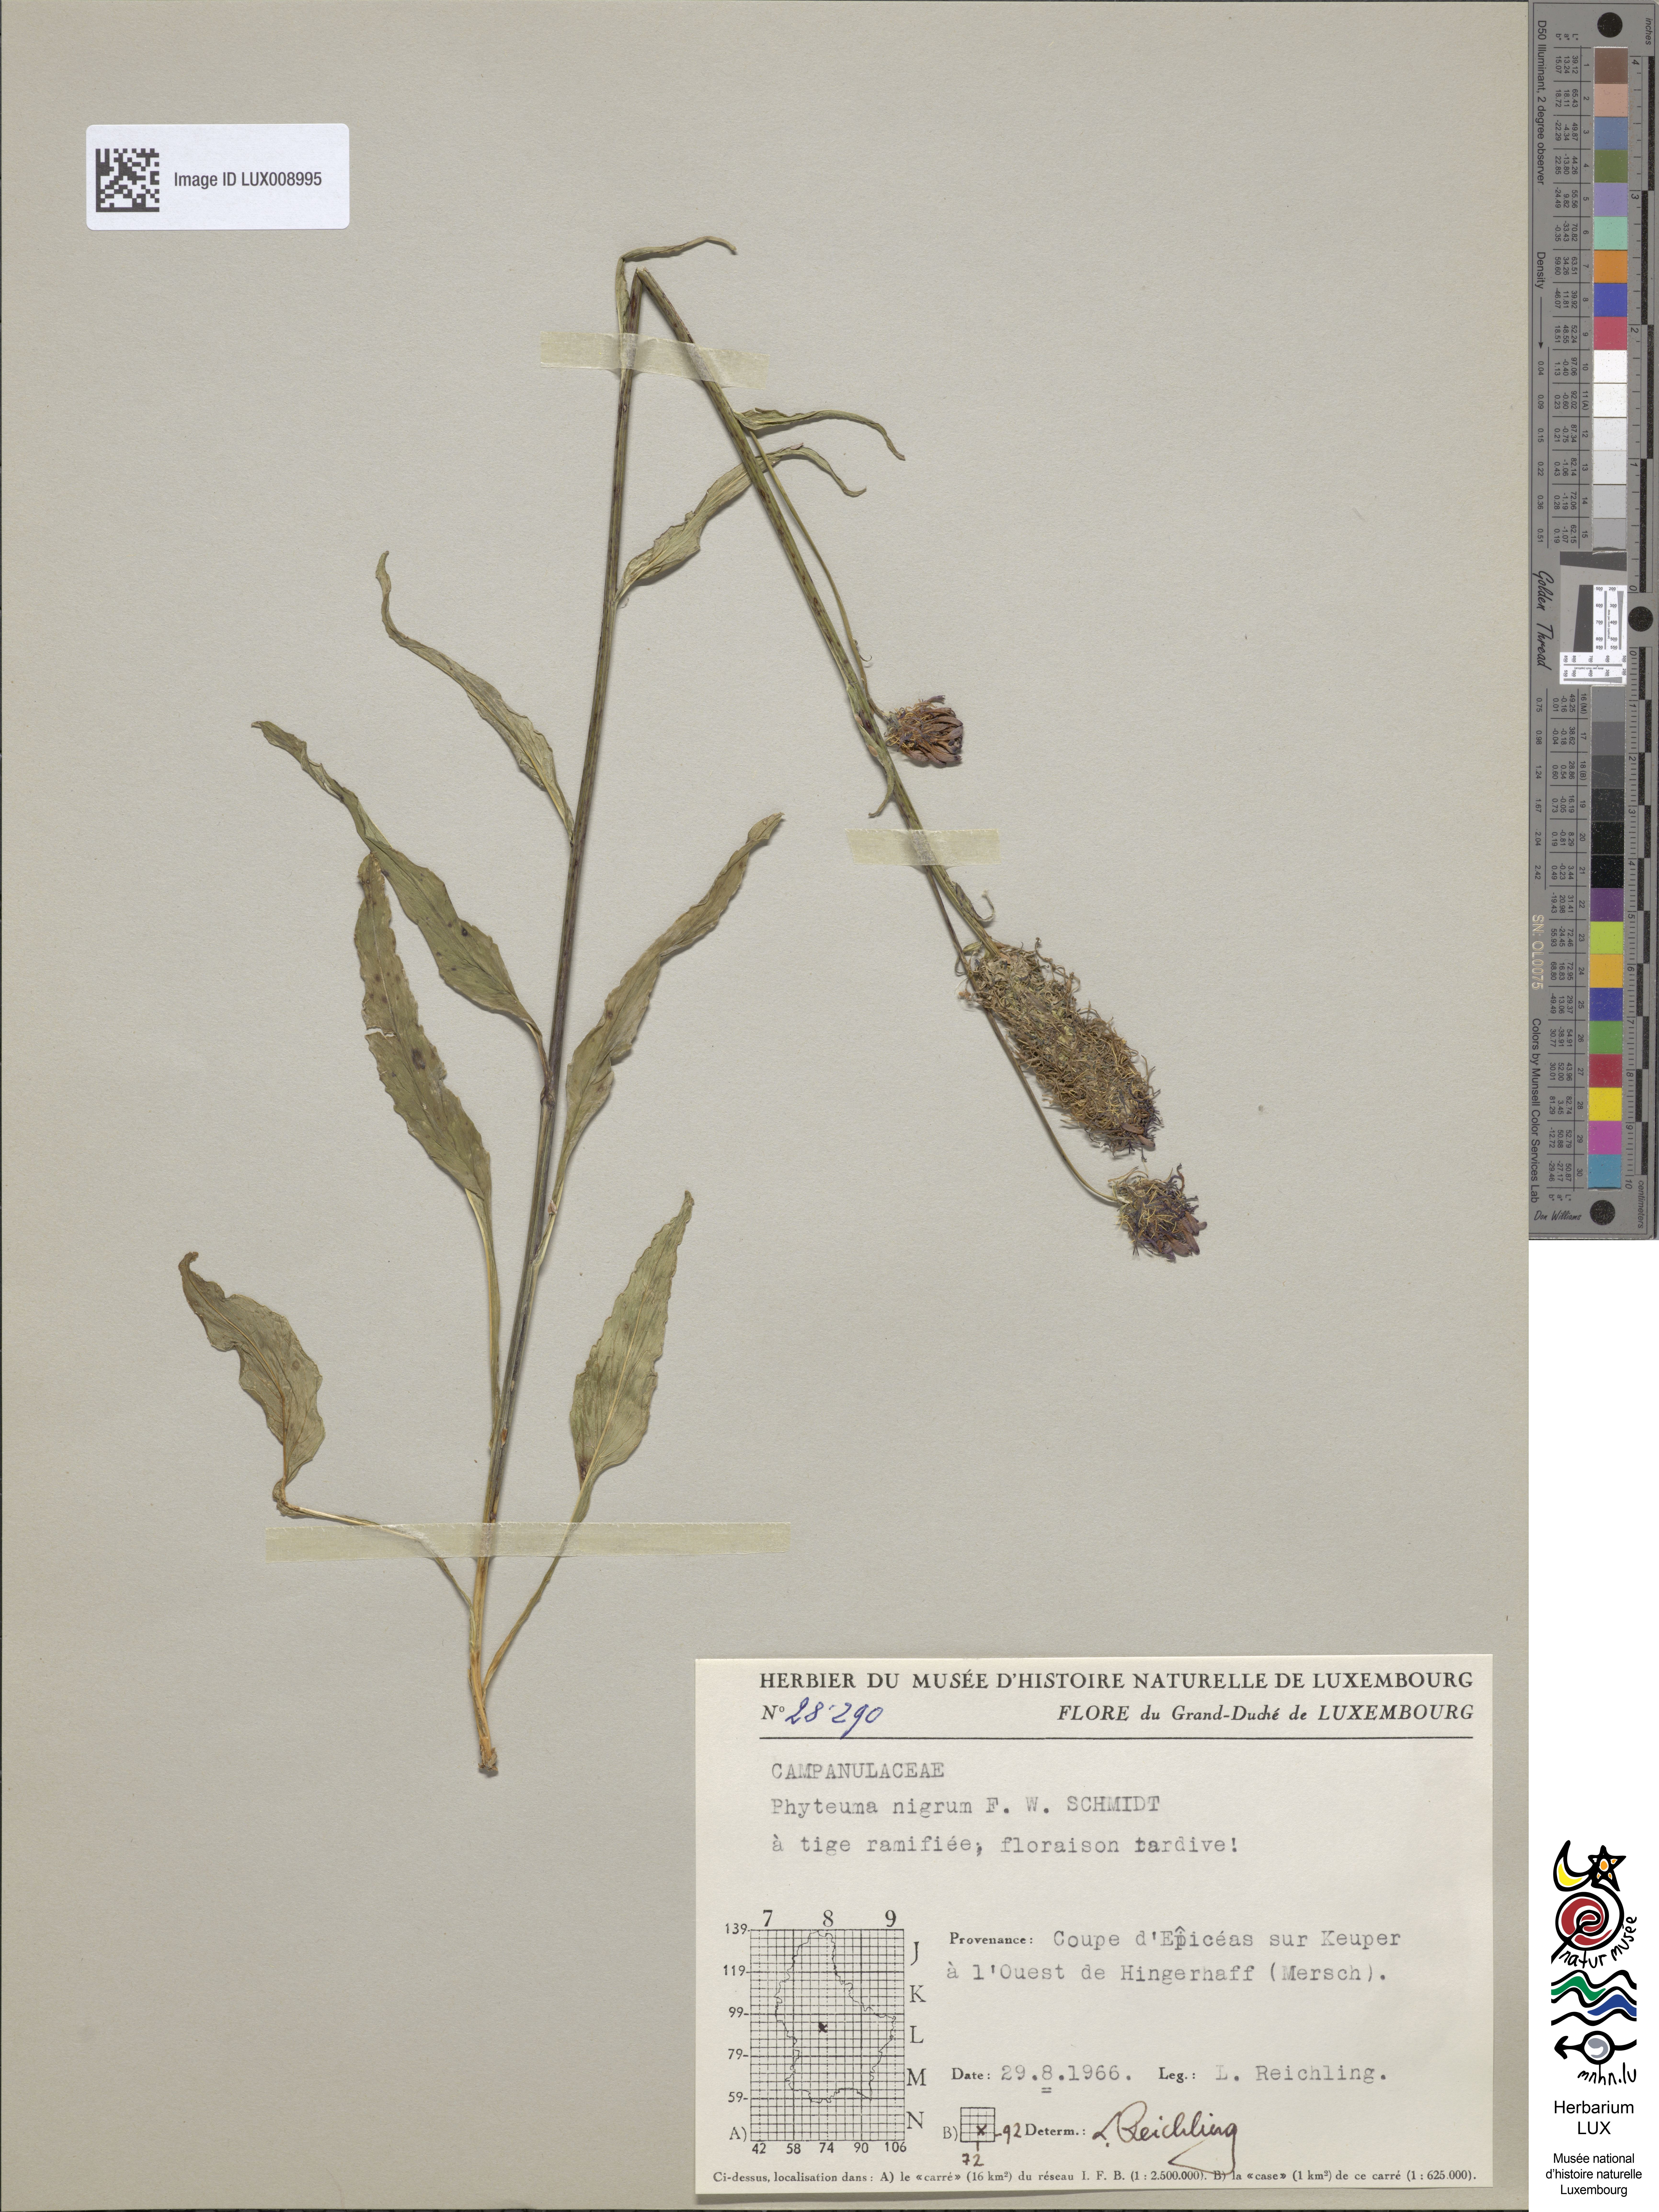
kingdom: Plantae
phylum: Tracheophyta
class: Magnoliopsida
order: Asterales
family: Campanulaceae
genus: Phyteuma
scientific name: Phyteuma nigrum
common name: Black rampion
